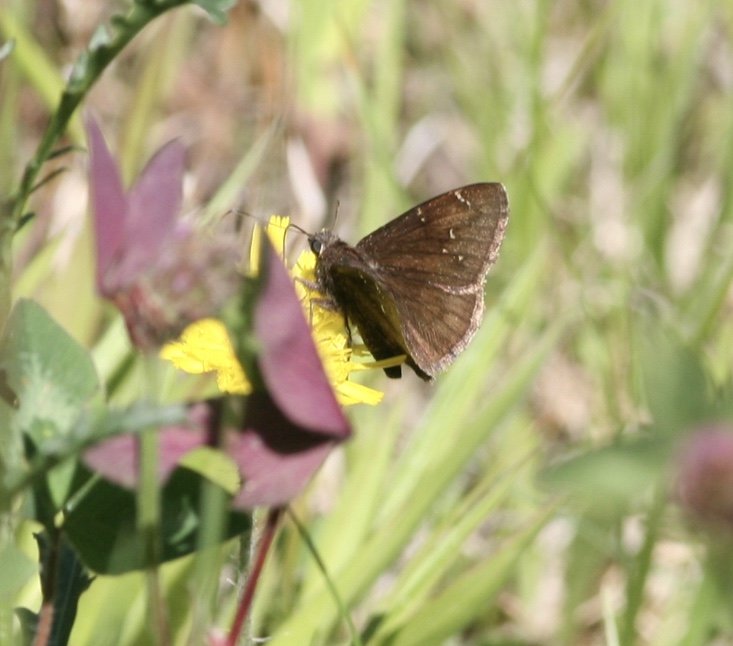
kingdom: Animalia
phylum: Arthropoda
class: Insecta
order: Lepidoptera
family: Hesperiidae
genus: Autochton
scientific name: Autochton
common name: Northern Cloudywing
